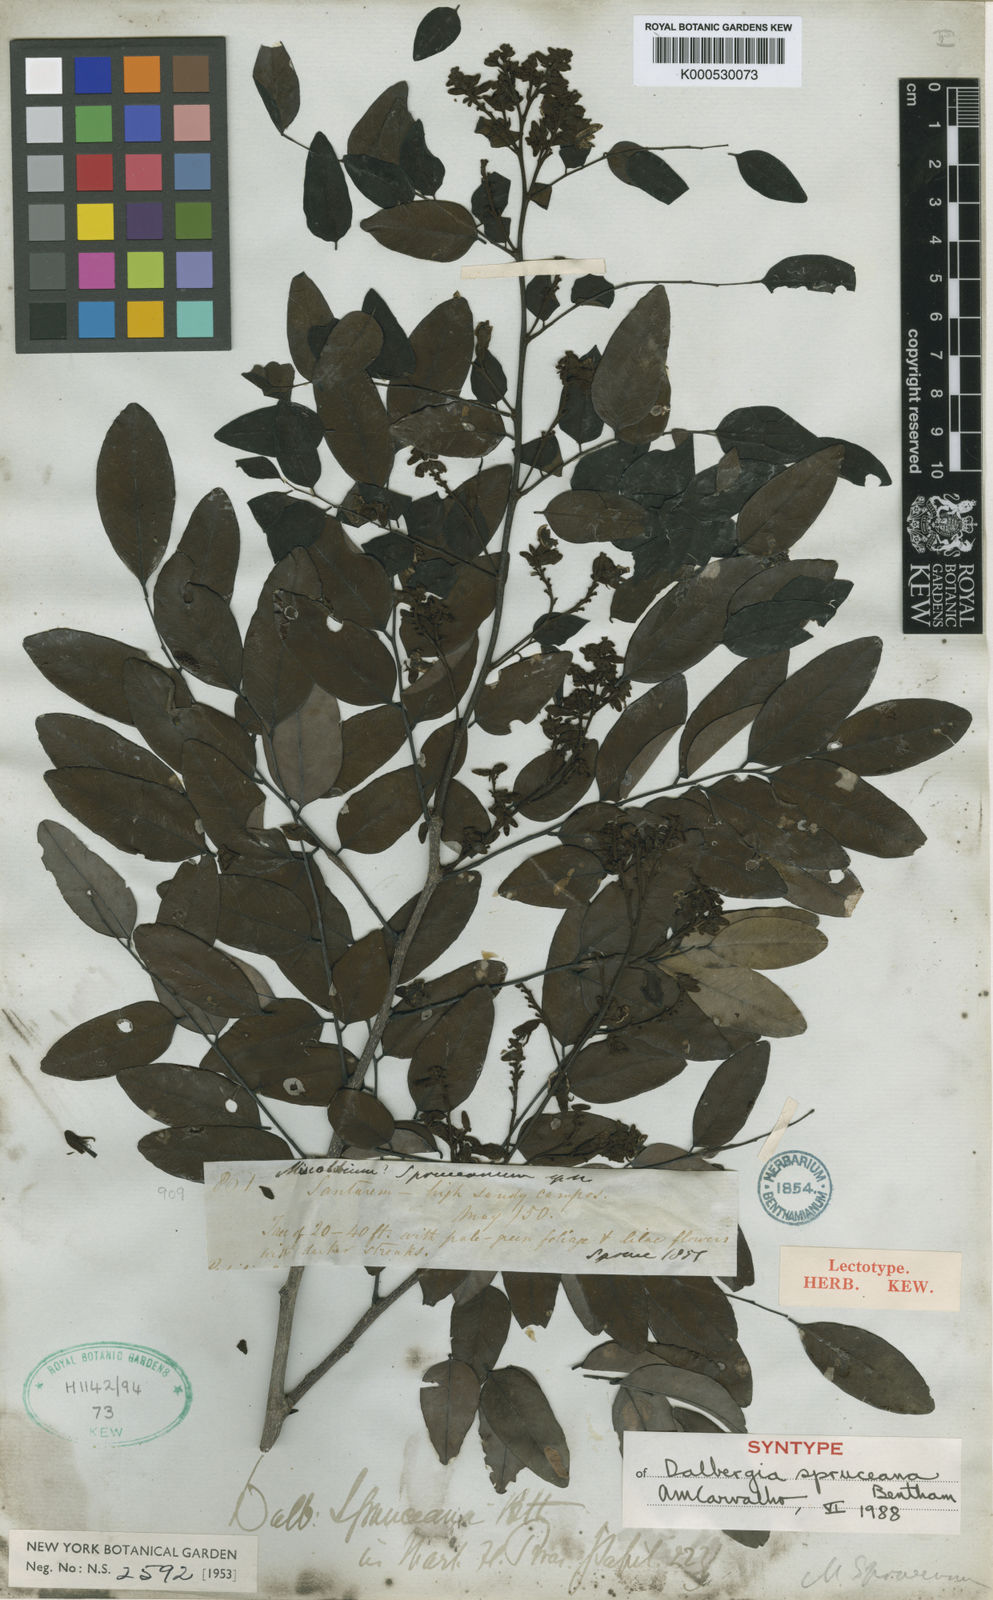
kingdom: Plantae
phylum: Tracheophyta
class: Magnoliopsida
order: Fabales
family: Fabaceae
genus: Dalbergia
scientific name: Dalbergia spruceana
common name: Amazon rosewood
